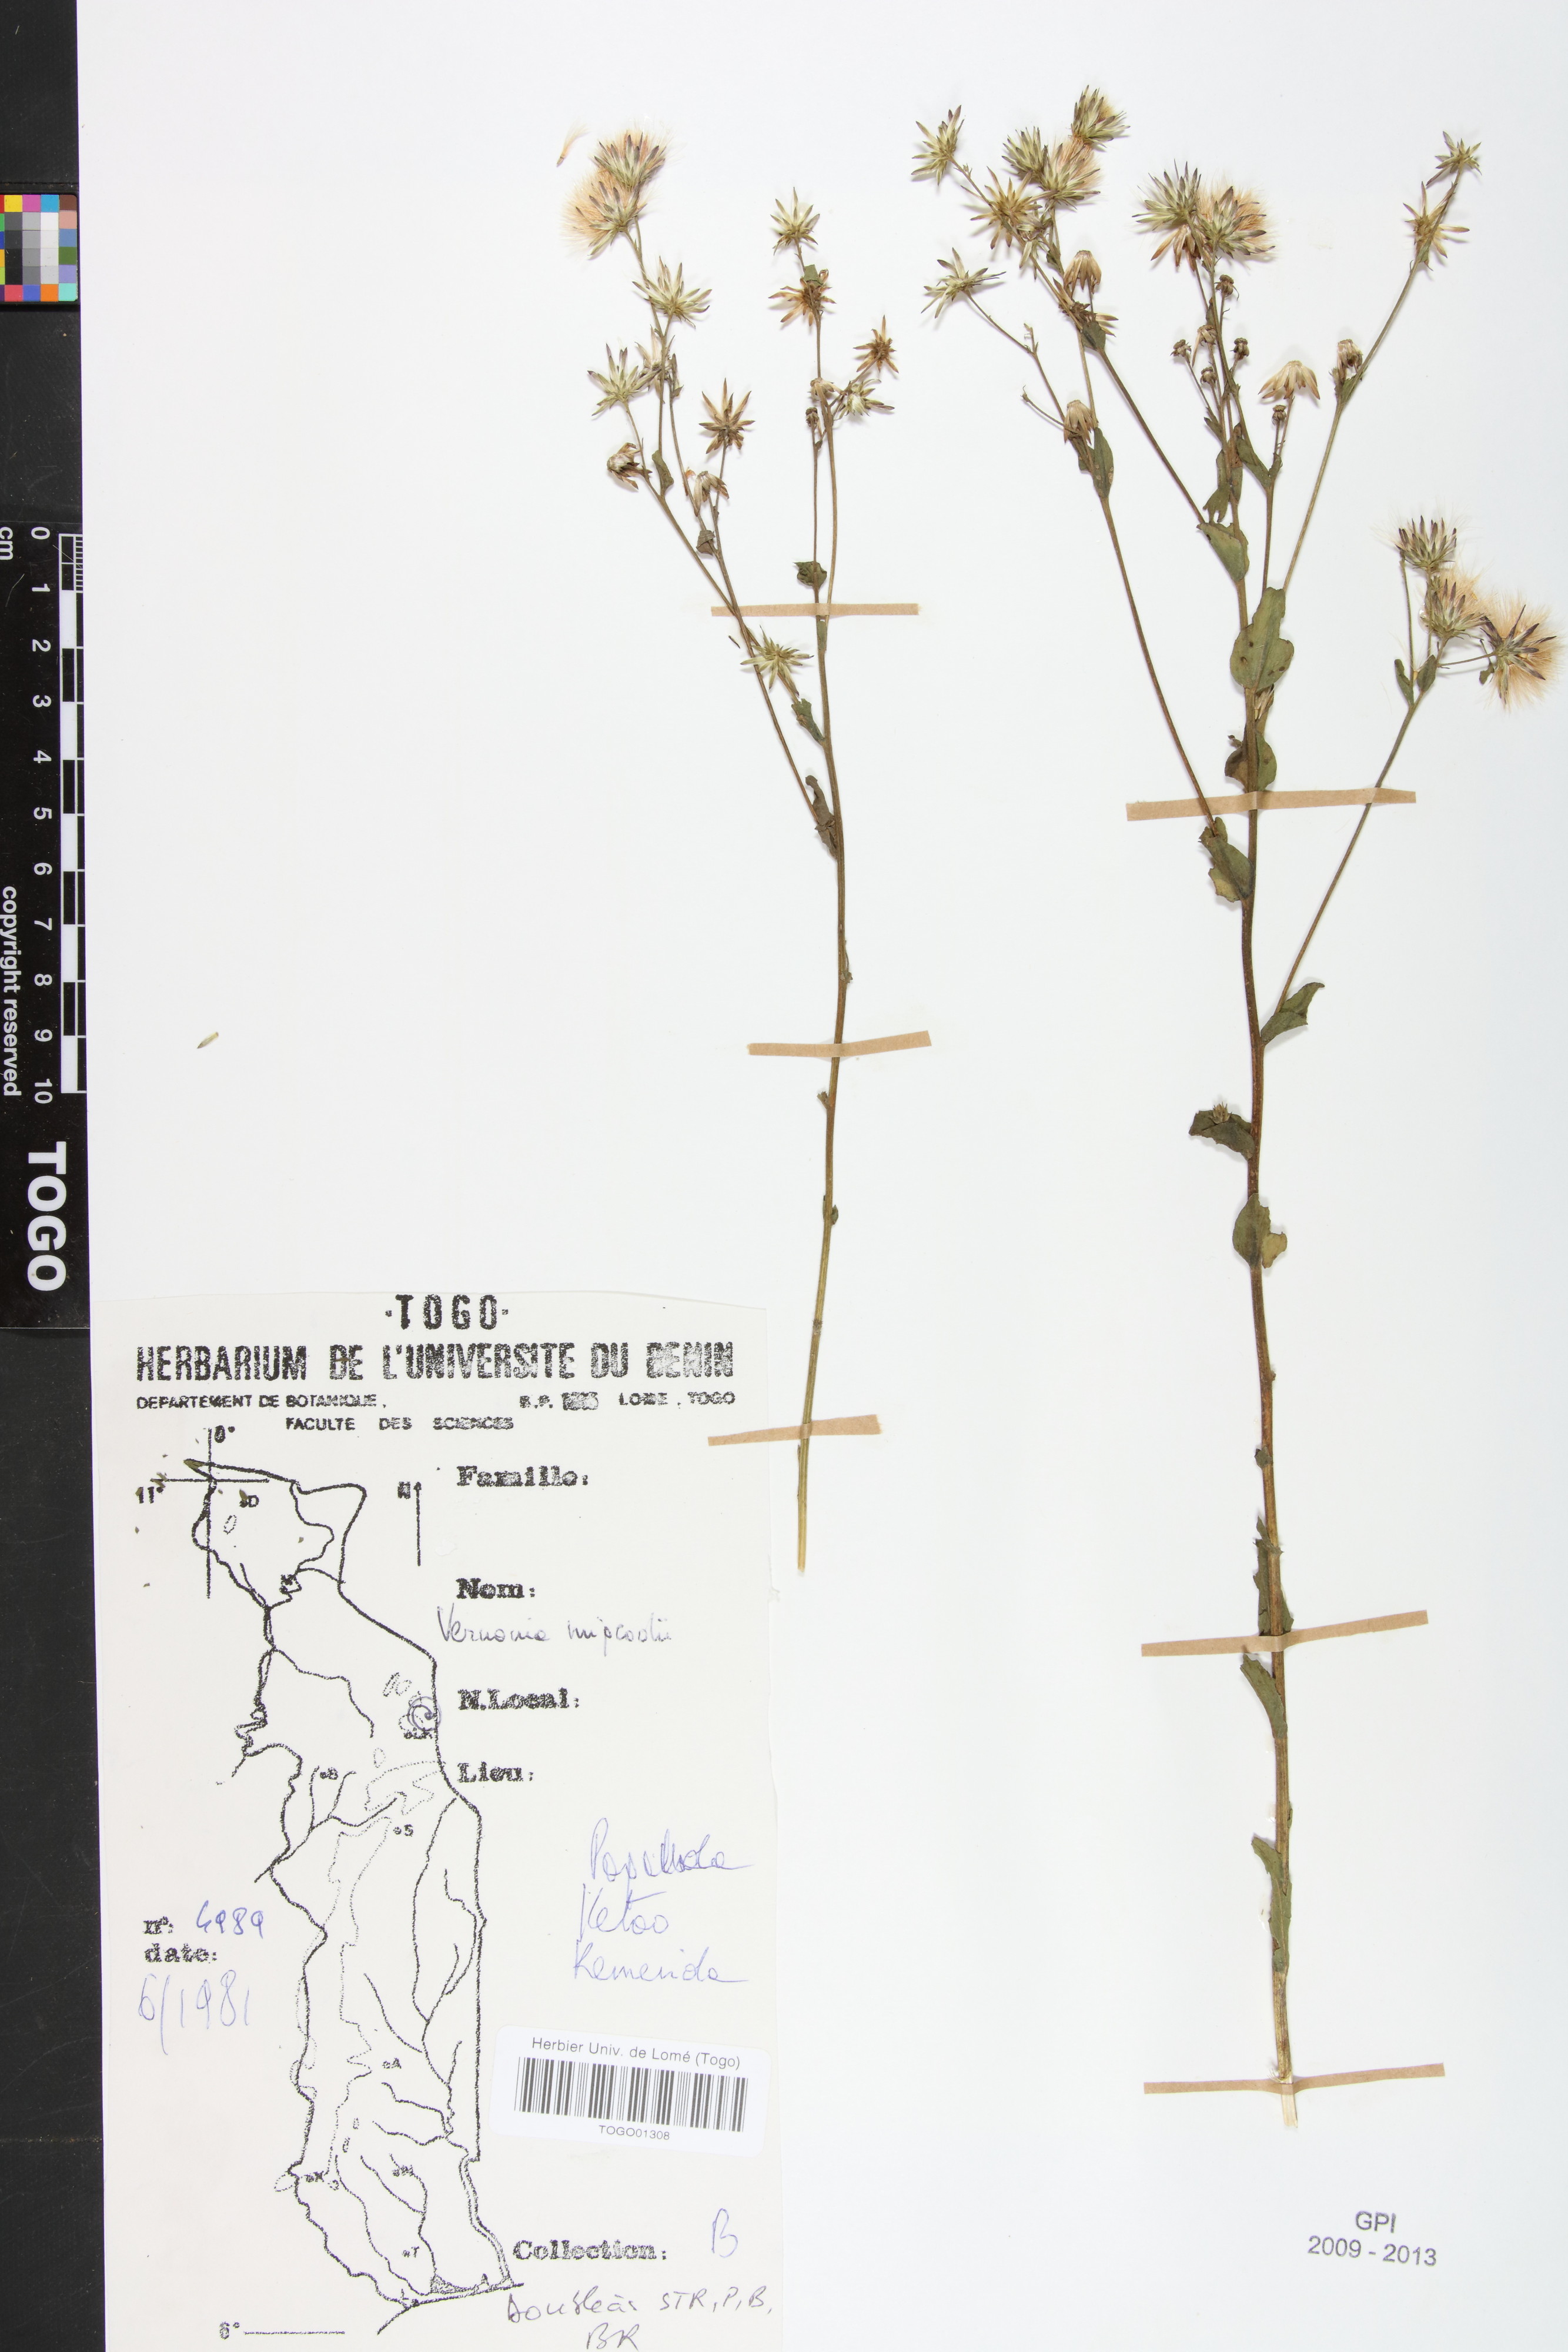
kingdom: Plantae
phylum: Tracheophyta
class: Magnoliopsida
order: Asterales
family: Asteraceae
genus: Vernoniastrum
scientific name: Vernoniastrum migeodii
